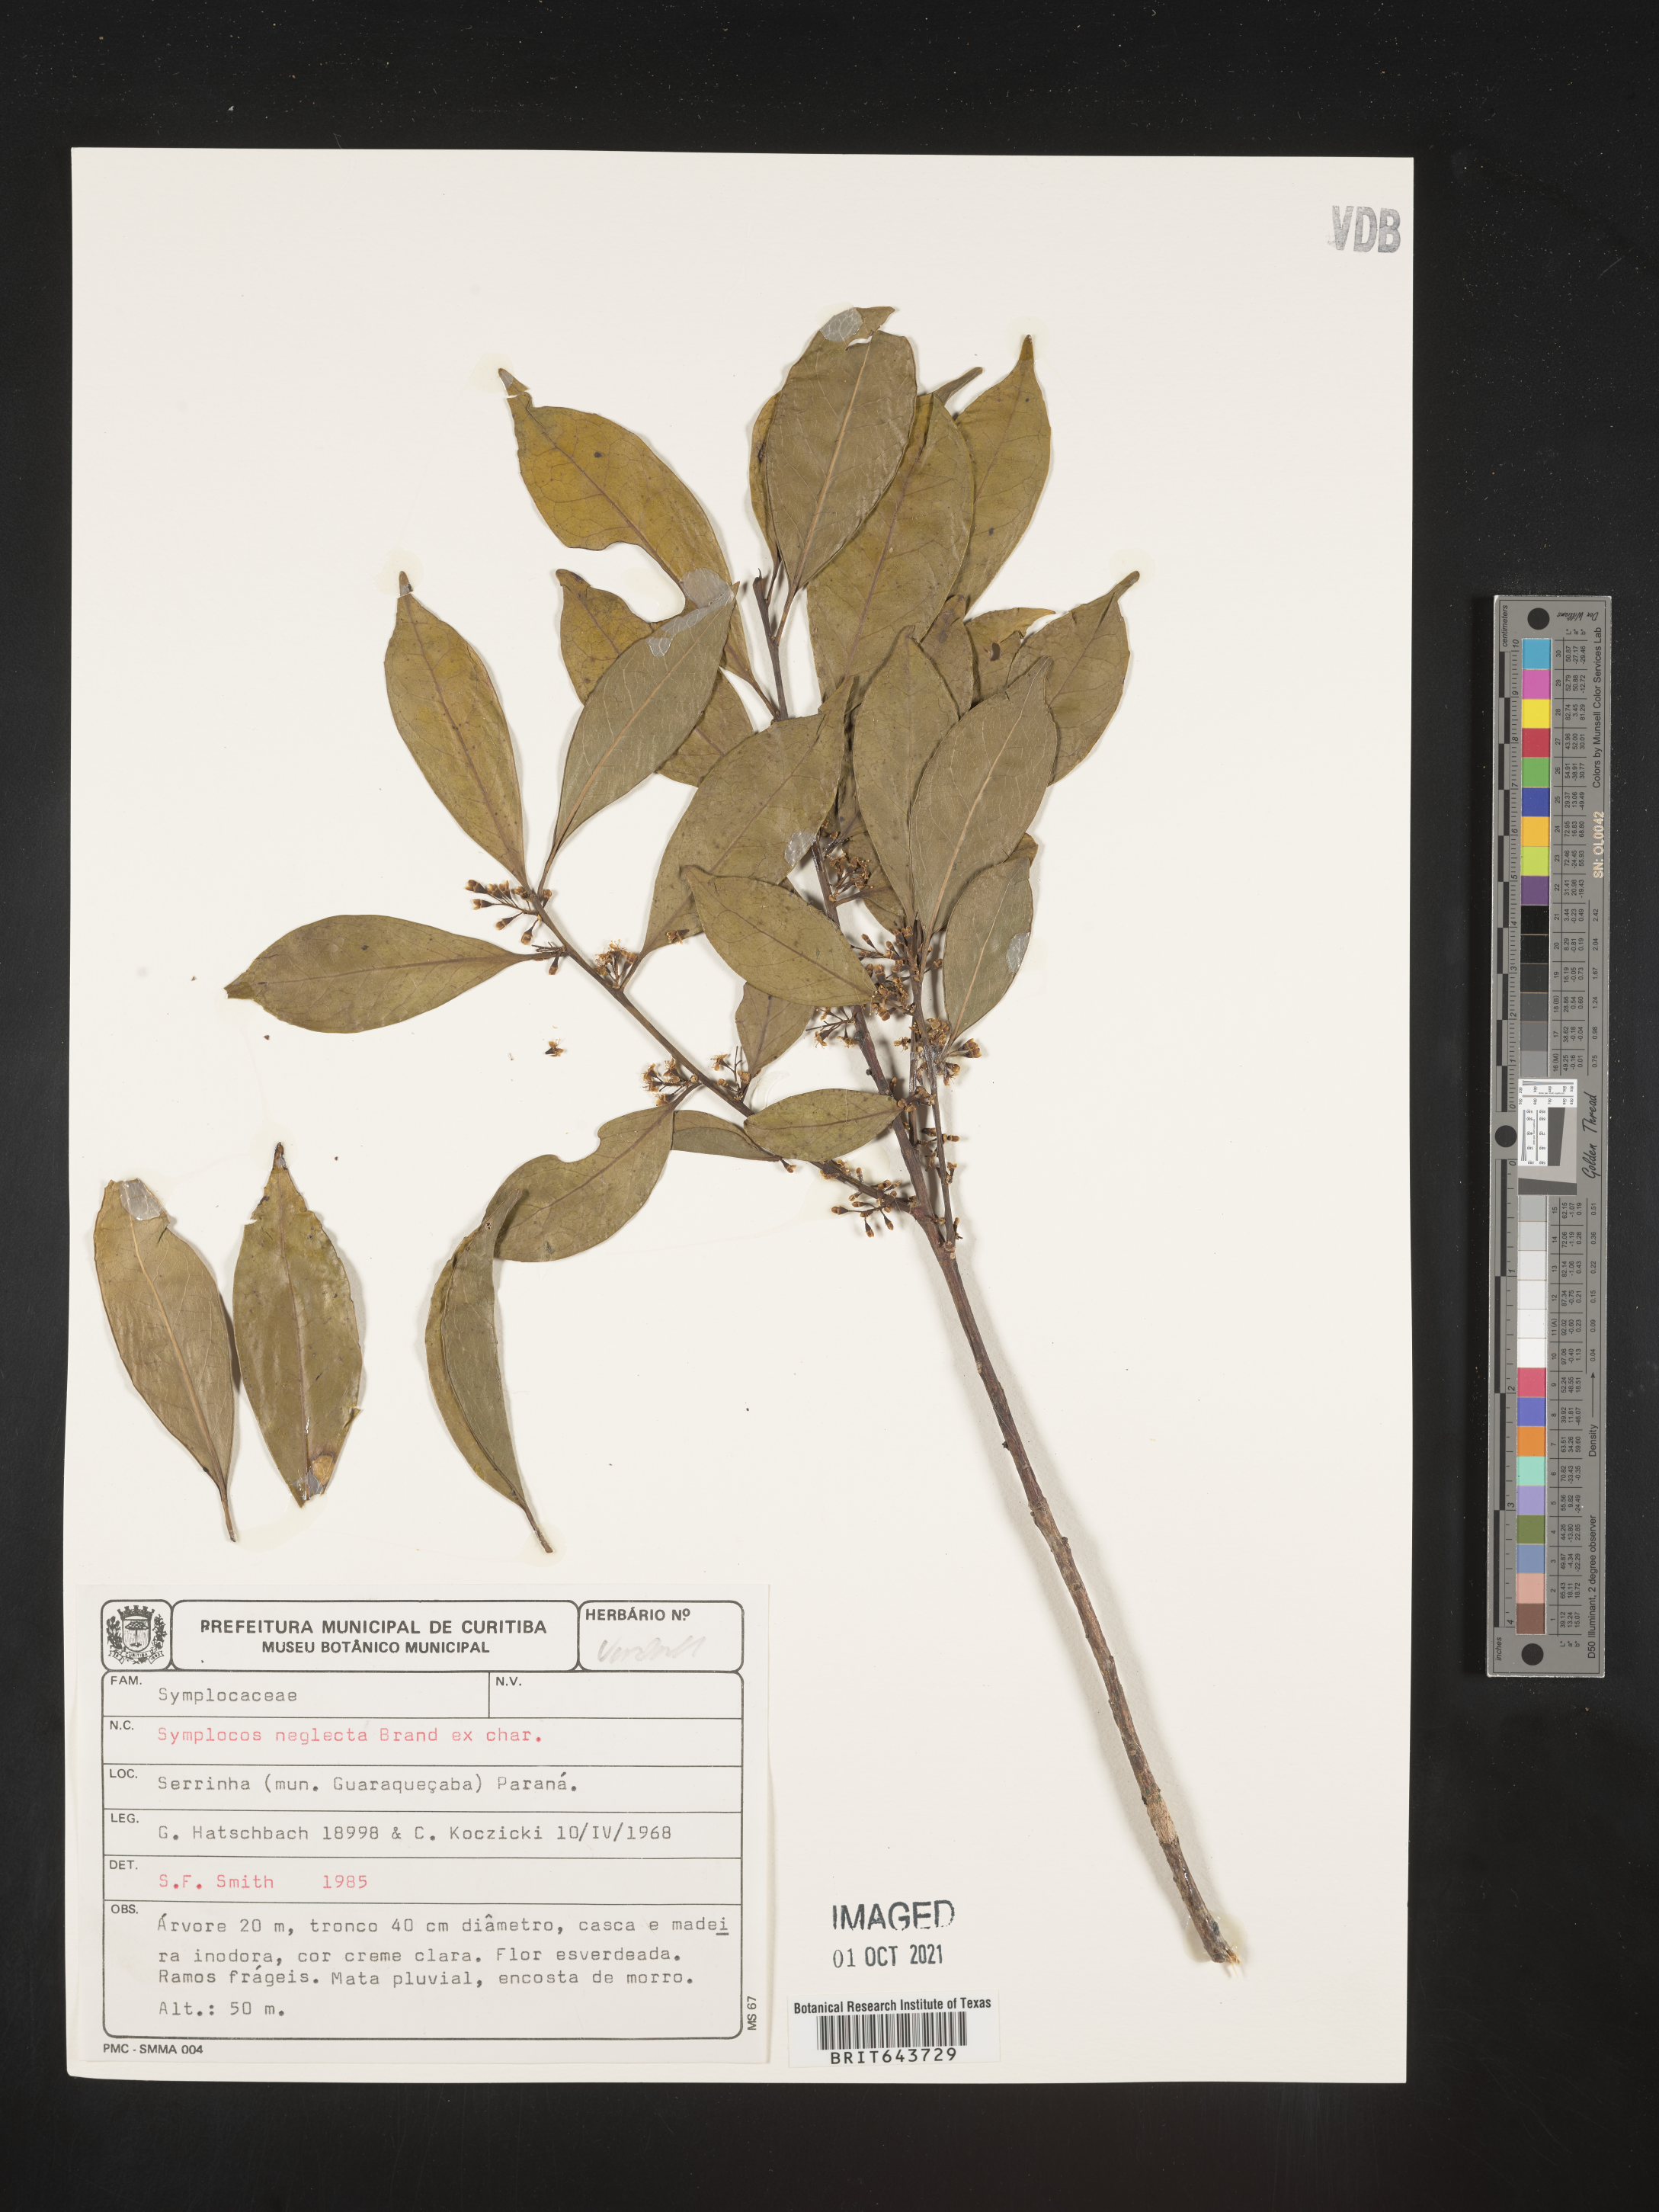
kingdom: Plantae
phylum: Tracheophyta
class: Magnoliopsida
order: Ericales
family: Symplocaceae
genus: Symplocos
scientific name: Symplocos
